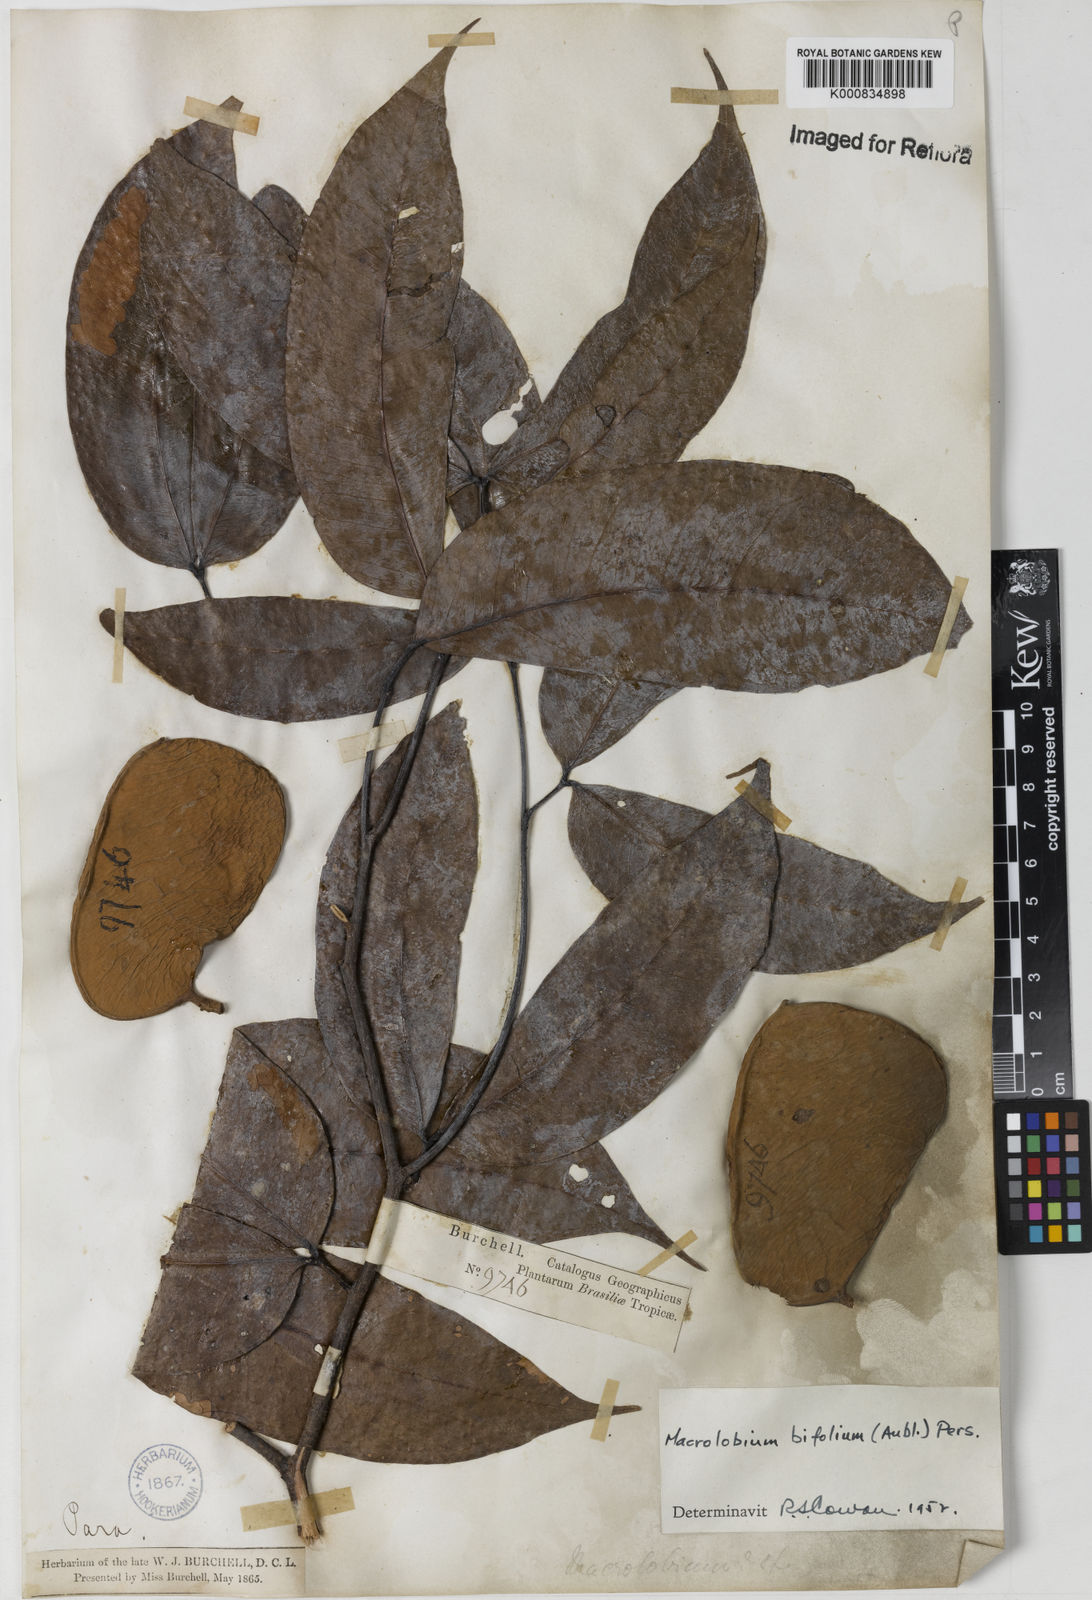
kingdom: Plantae
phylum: Tracheophyta
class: Magnoliopsida
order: Fabales
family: Fabaceae
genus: Macrolobium
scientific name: Macrolobium bifolium
